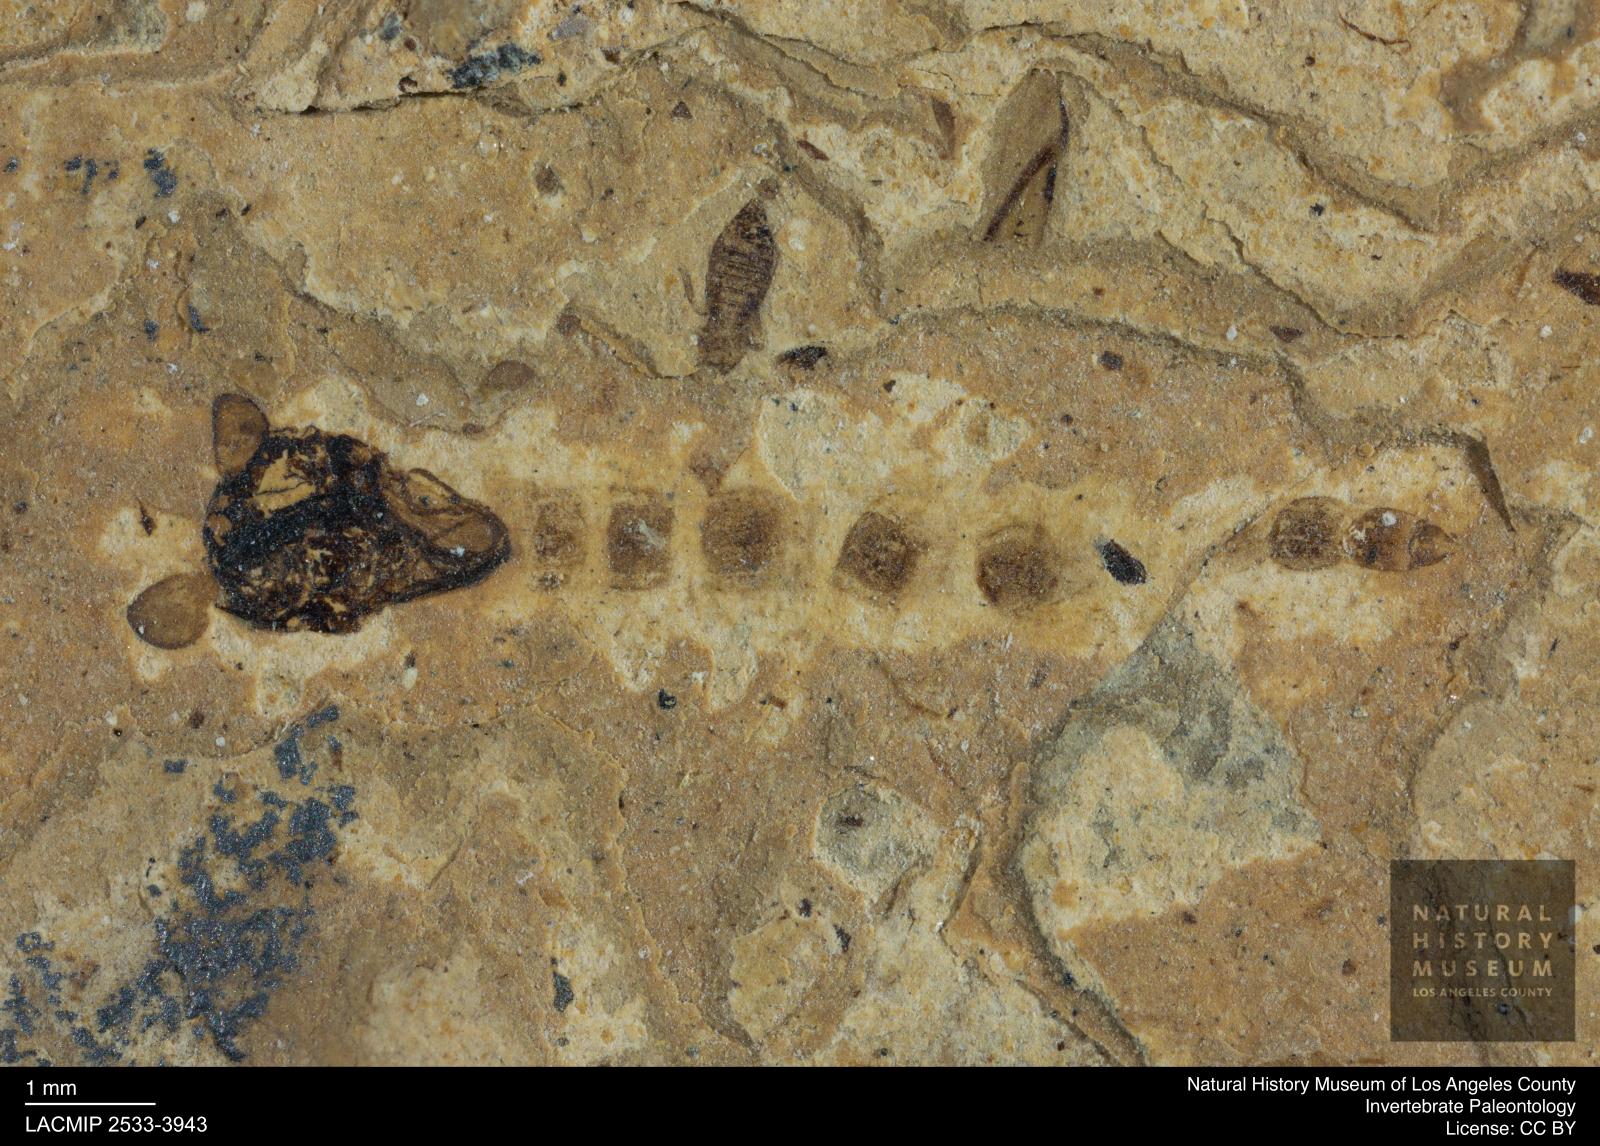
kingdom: Animalia
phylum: Arthropoda
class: Insecta
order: Diptera
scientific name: Diptera
